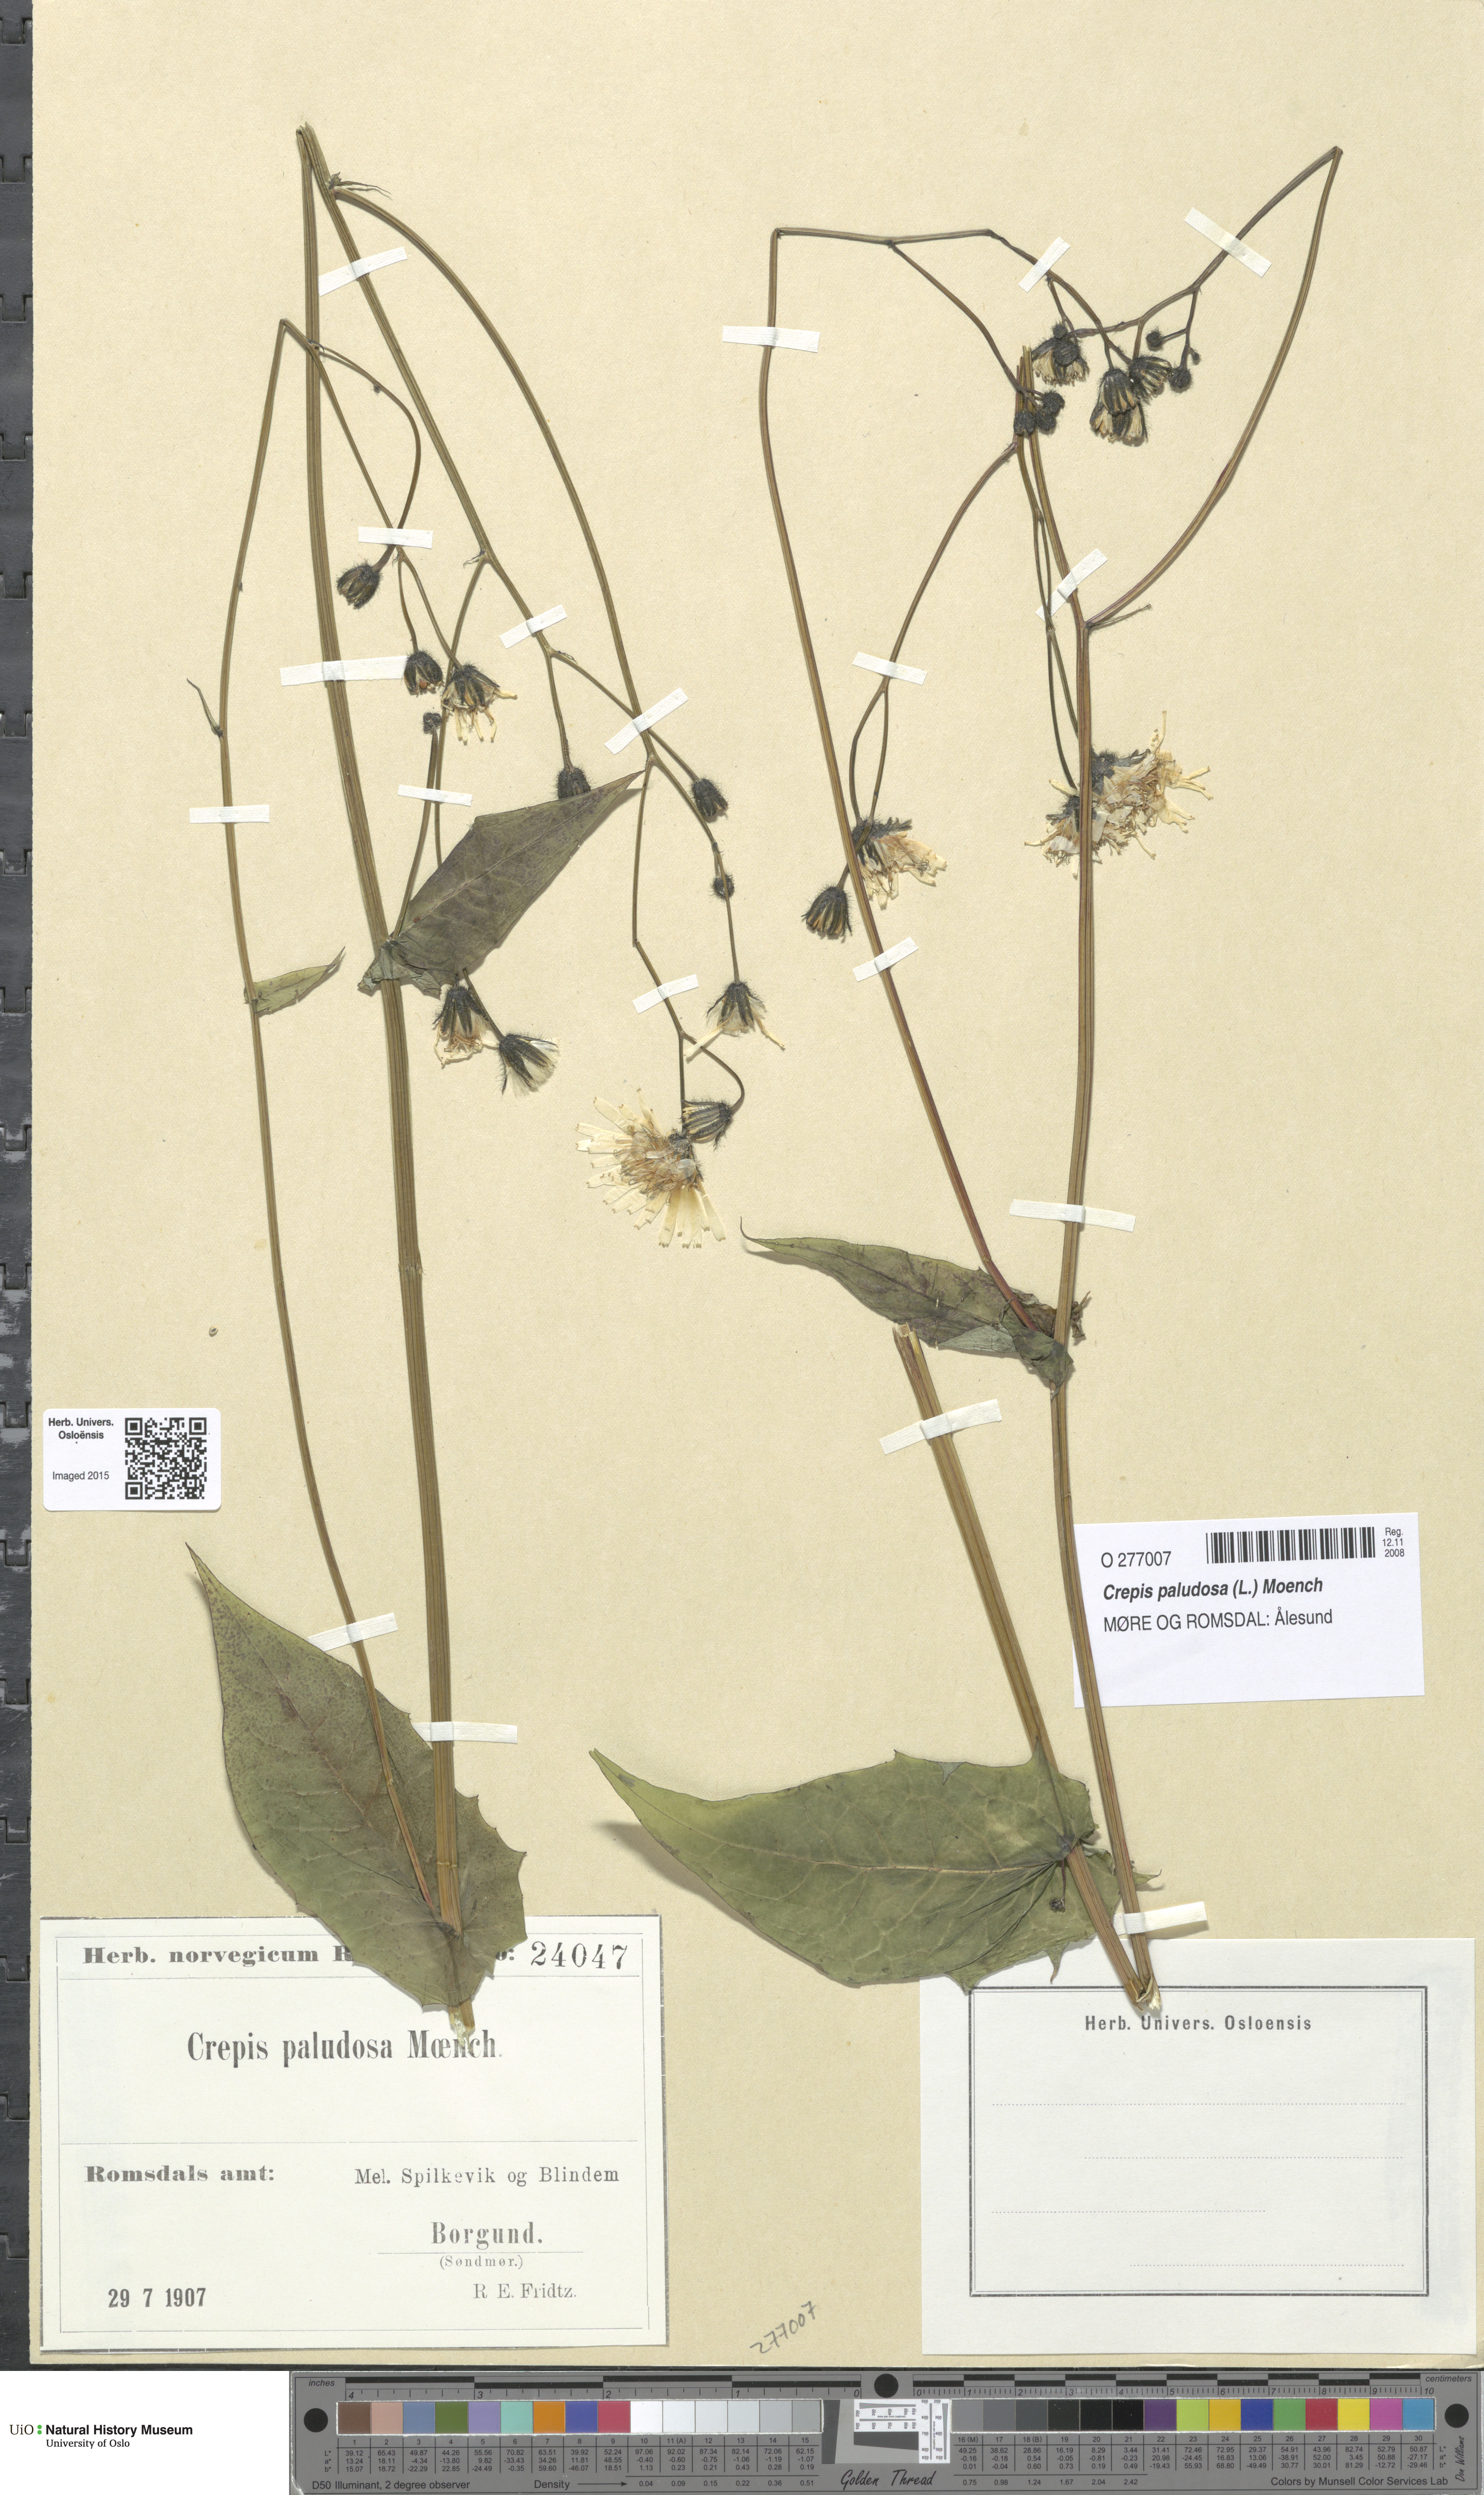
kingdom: Plantae
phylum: Tracheophyta
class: Magnoliopsida
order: Asterales
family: Asteraceae
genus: Crepis
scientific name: Crepis paludosa
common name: Marsh hawk's-beard
